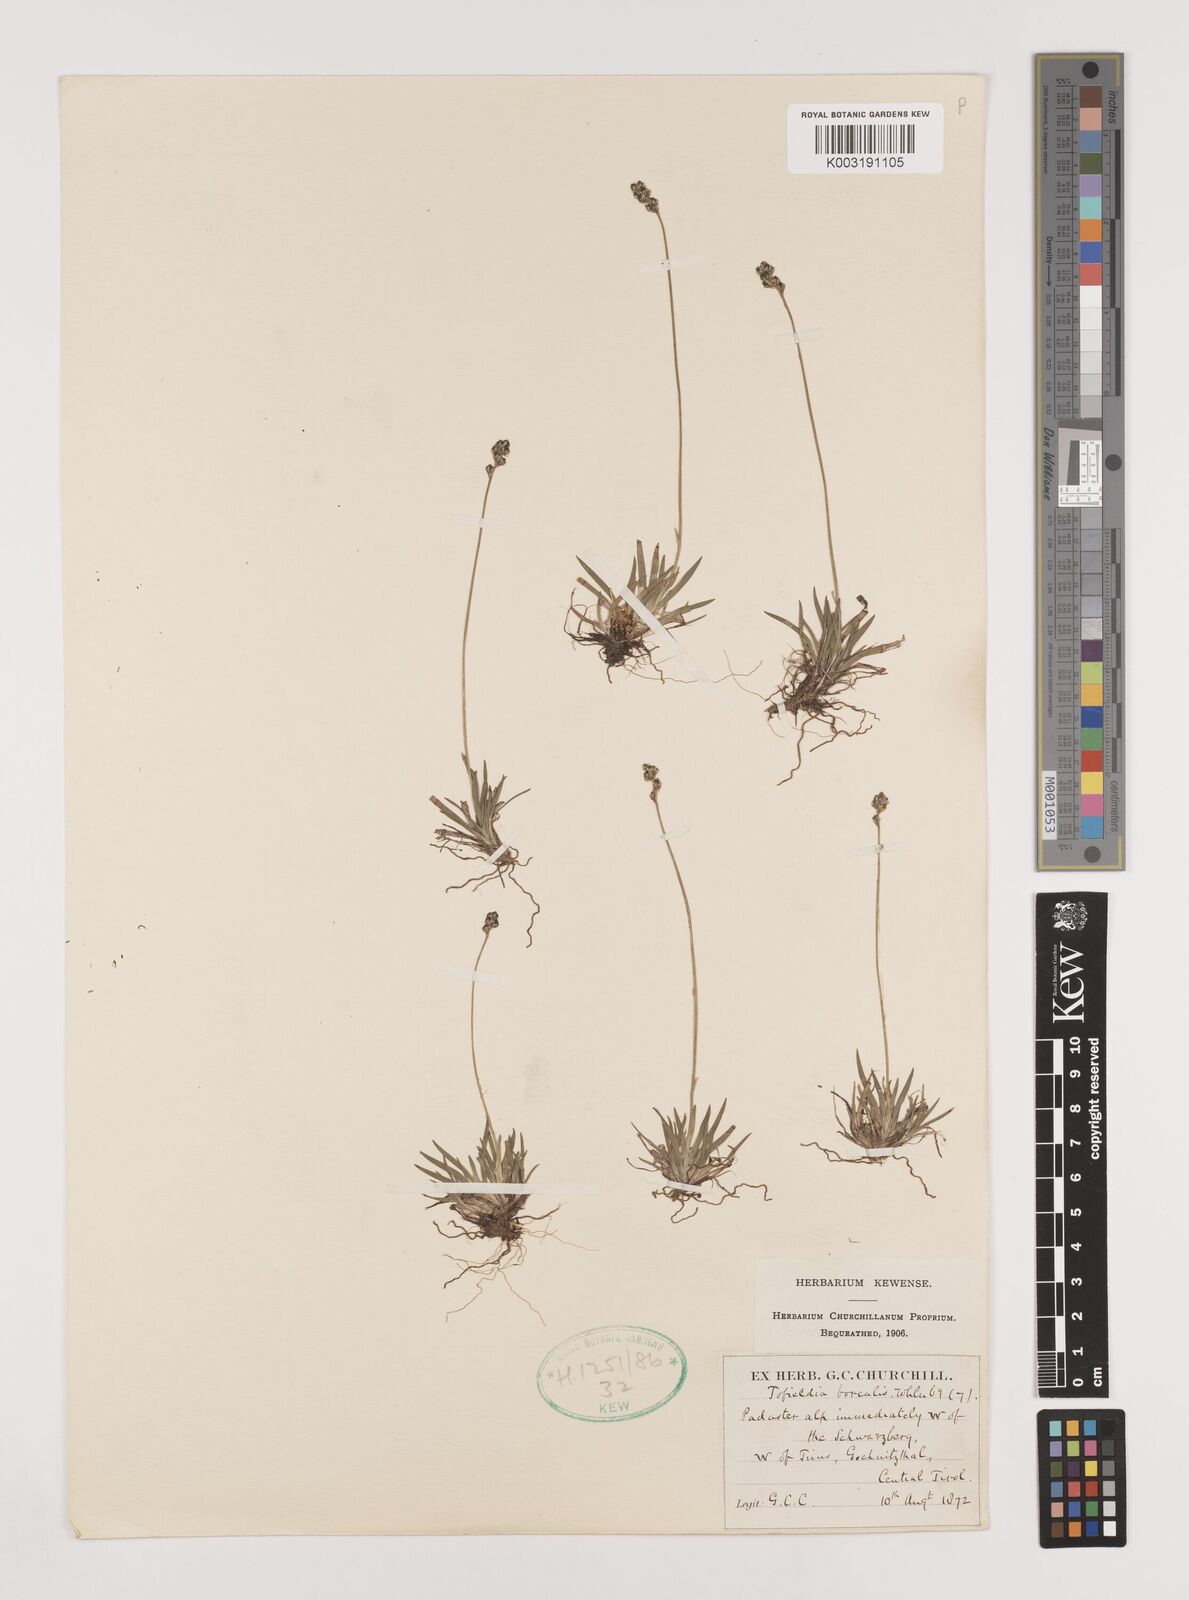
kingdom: Plantae
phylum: Tracheophyta
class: Liliopsida
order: Alismatales
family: Tofieldiaceae
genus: Tofieldia
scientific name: Tofieldia pusilla
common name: Scottish false asphodel
